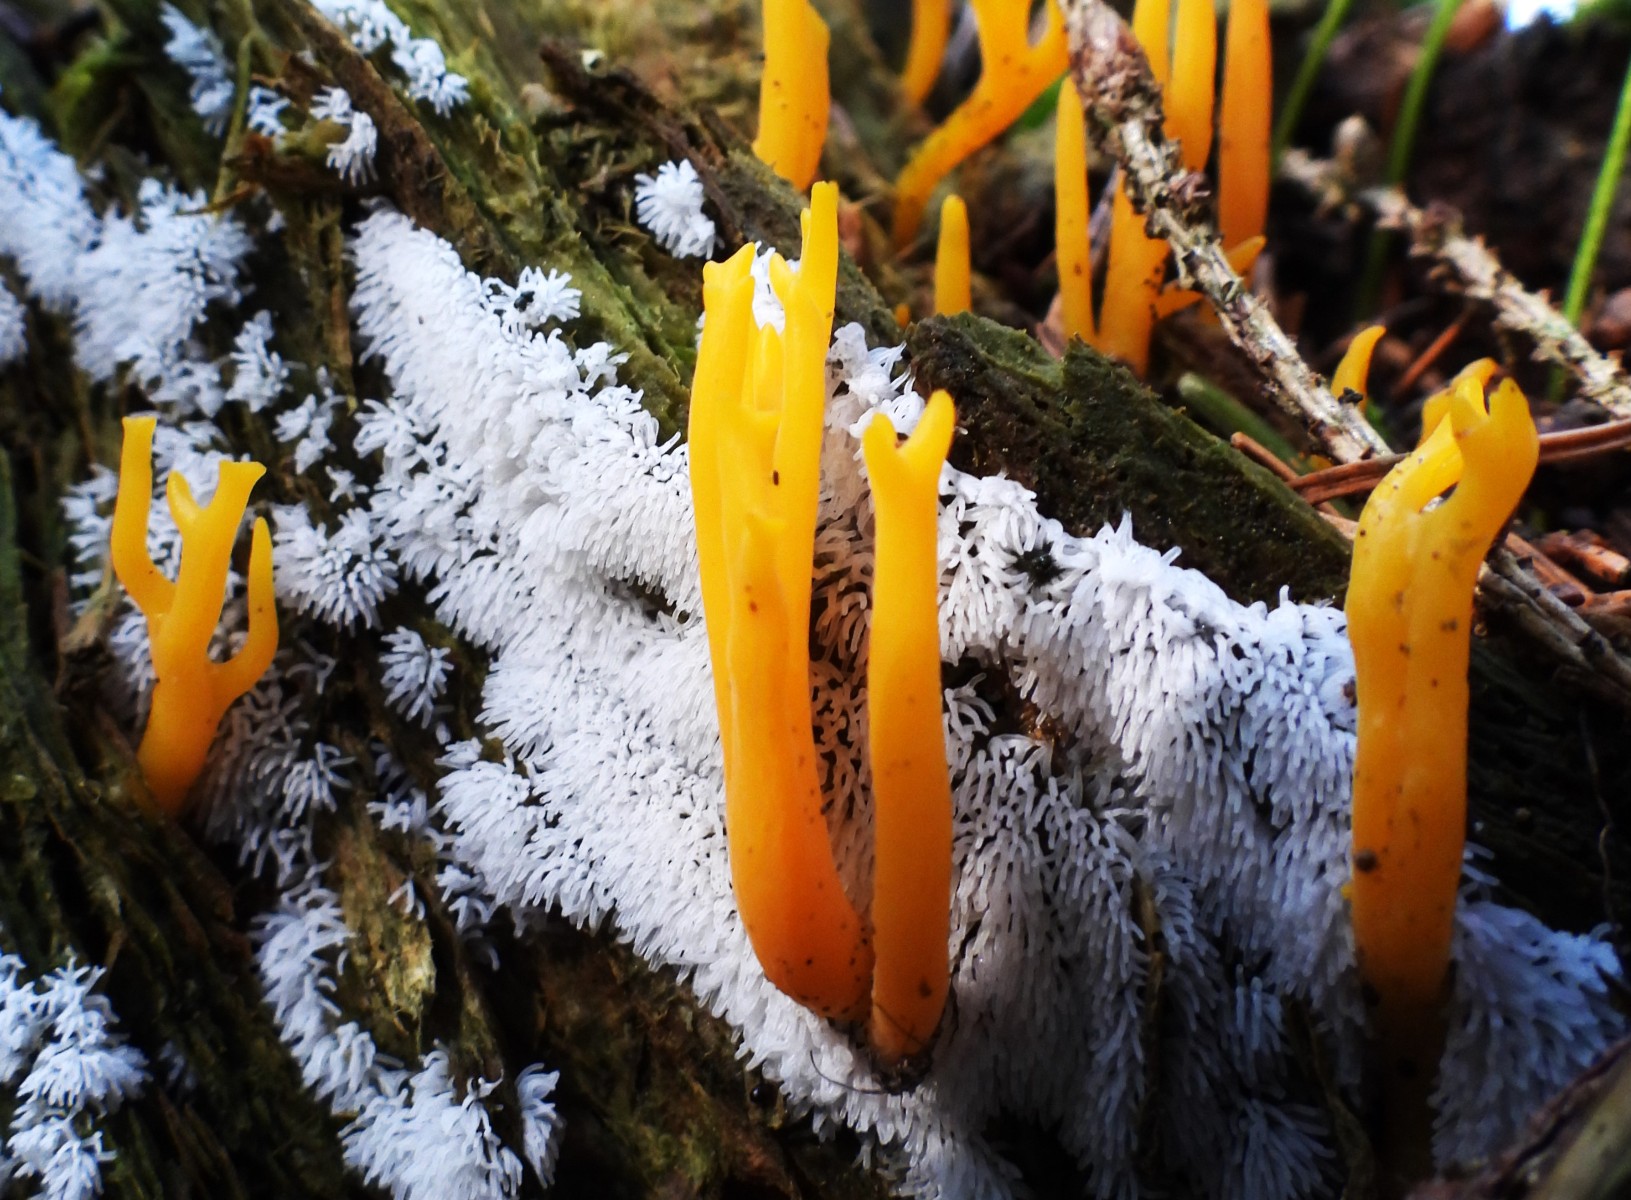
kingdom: Protozoa
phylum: Mycetozoa
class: Protosteliomycetes
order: Ceratiomyxales
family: Ceratiomyxaceae
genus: Ceratiomyxa
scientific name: Ceratiomyxa fruticulosa
